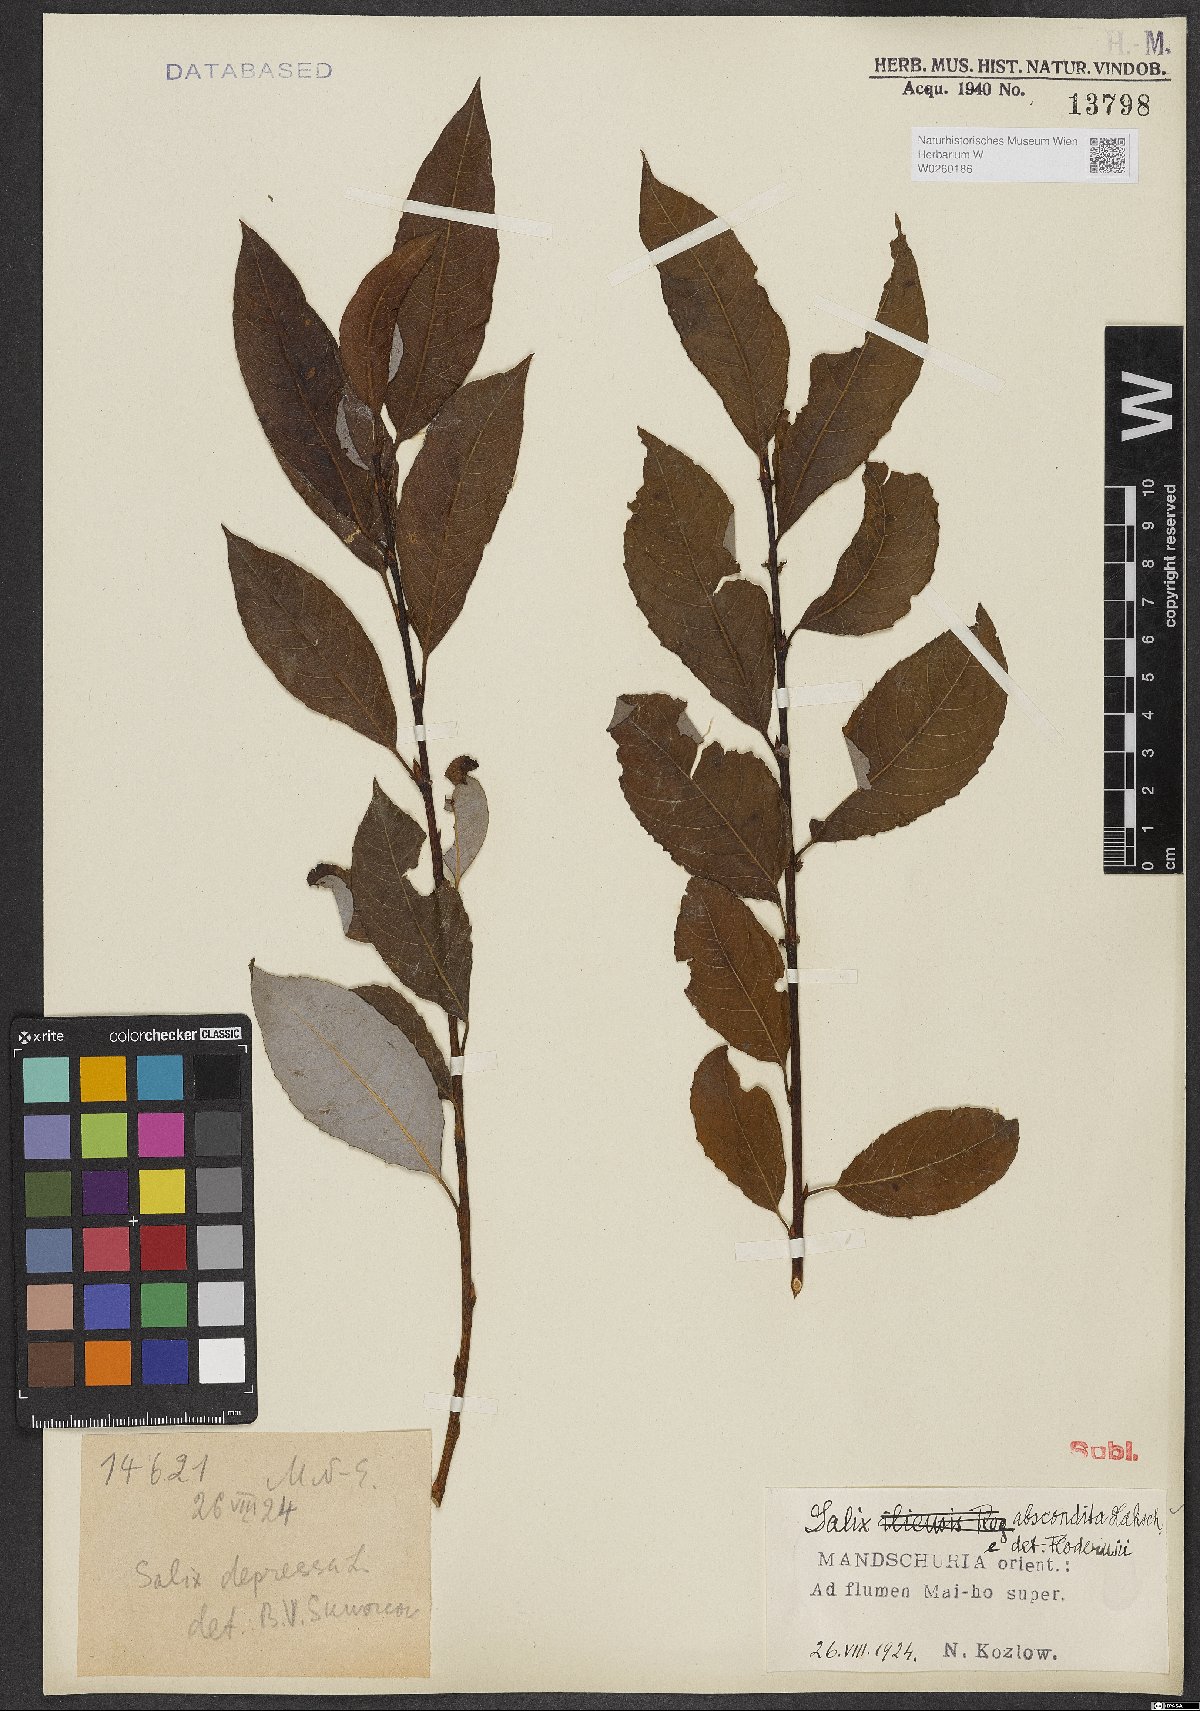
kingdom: Plantae
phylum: Tracheophyta
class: Magnoliopsida
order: Malpighiales
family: Salicaceae
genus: Salix
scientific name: Salix abscondita
